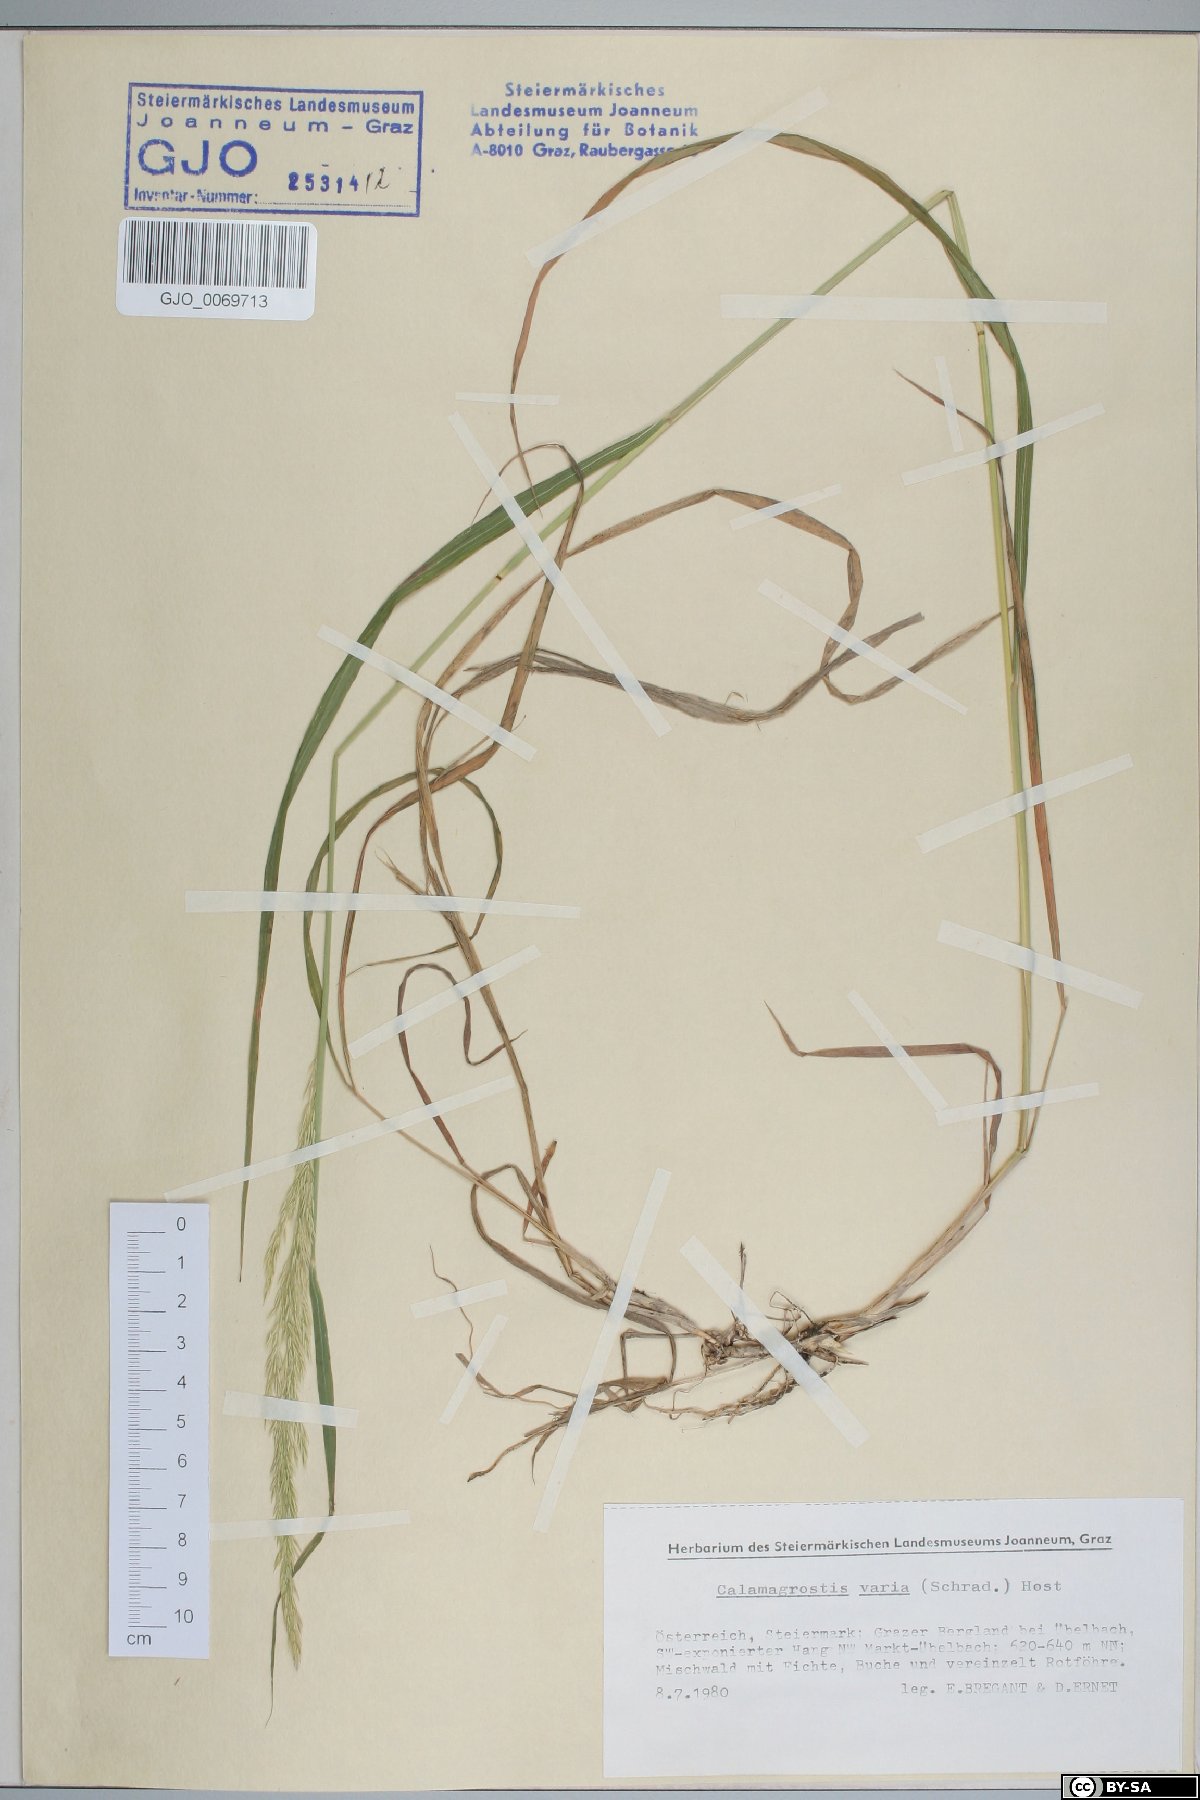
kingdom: Plantae
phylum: Tracheophyta
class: Liliopsida
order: Poales
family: Poaceae
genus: Calamagrostis
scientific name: Calamagrostis varia
